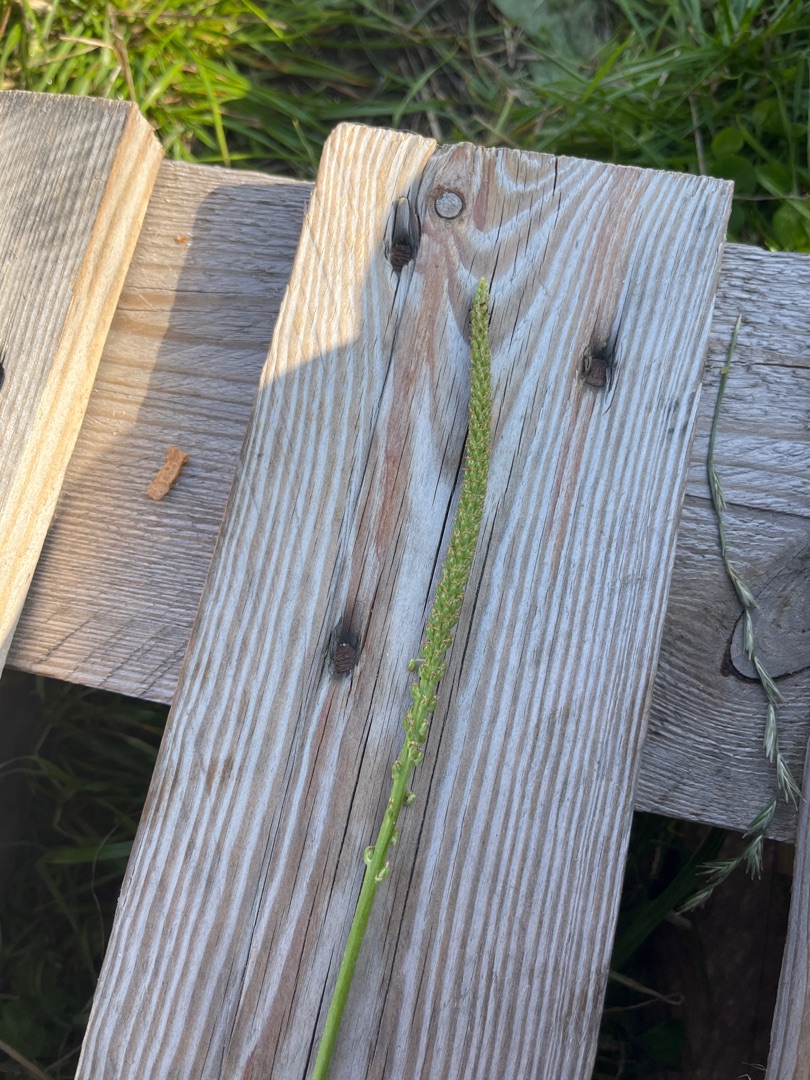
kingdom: Plantae
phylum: Tracheophyta
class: Magnoliopsida
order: Lamiales
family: Plantaginaceae
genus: Plantago
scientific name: Plantago major
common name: Glat vejbred
